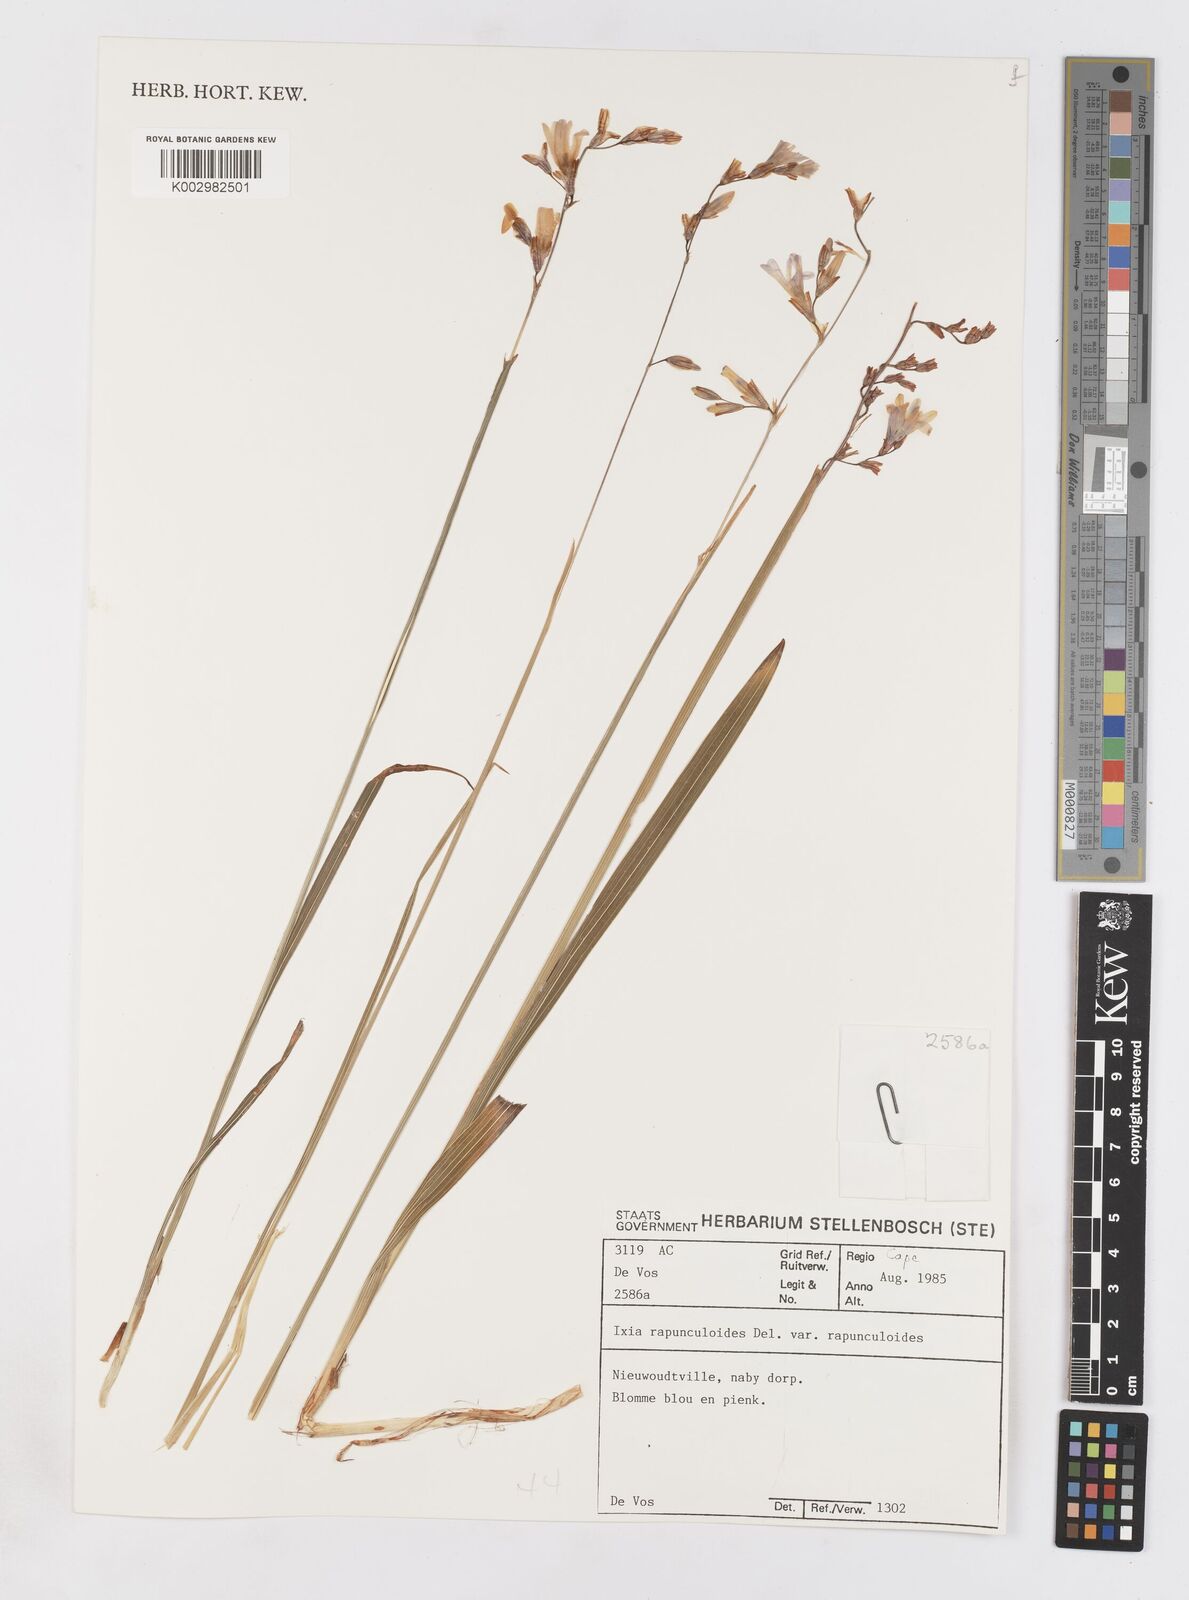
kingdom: Plantae
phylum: Tracheophyta
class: Liliopsida
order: Asparagales
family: Iridaceae
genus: Ixia
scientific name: Ixia rapunculoides
